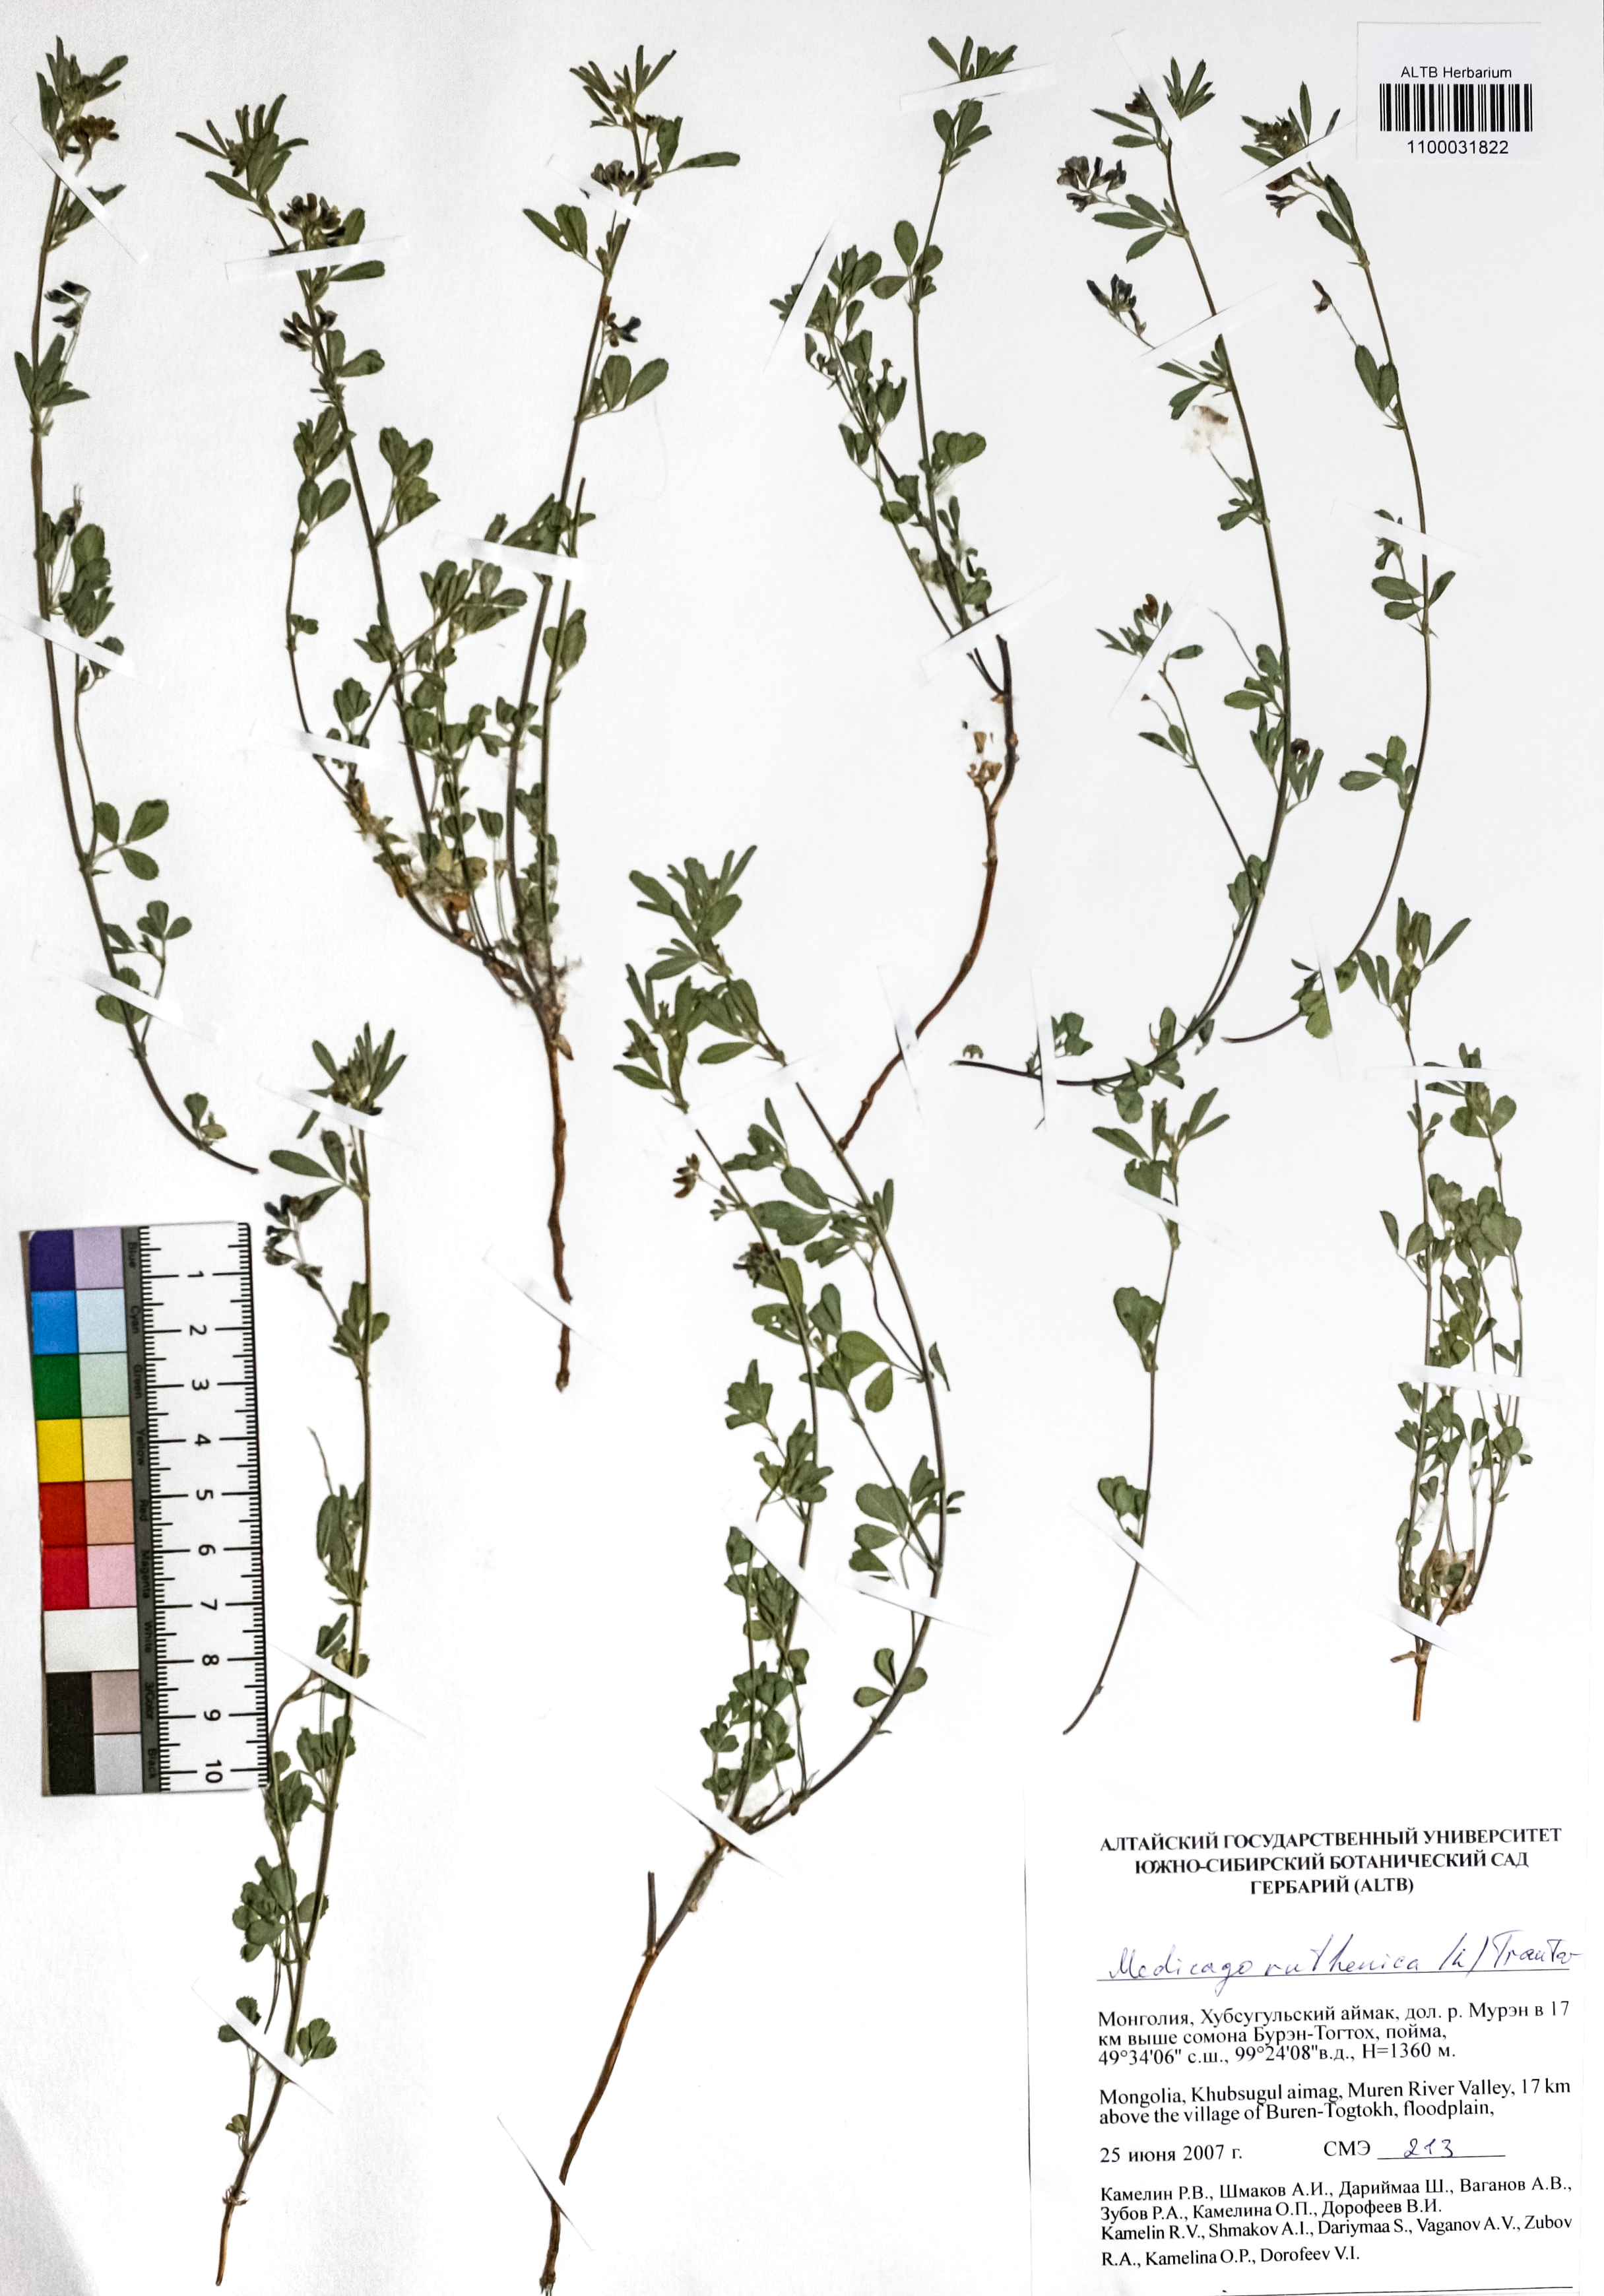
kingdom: Plantae
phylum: Tracheophyta
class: Magnoliopsida
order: Fabales
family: Fabaceae
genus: Medicago
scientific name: Medicago ruthenica
